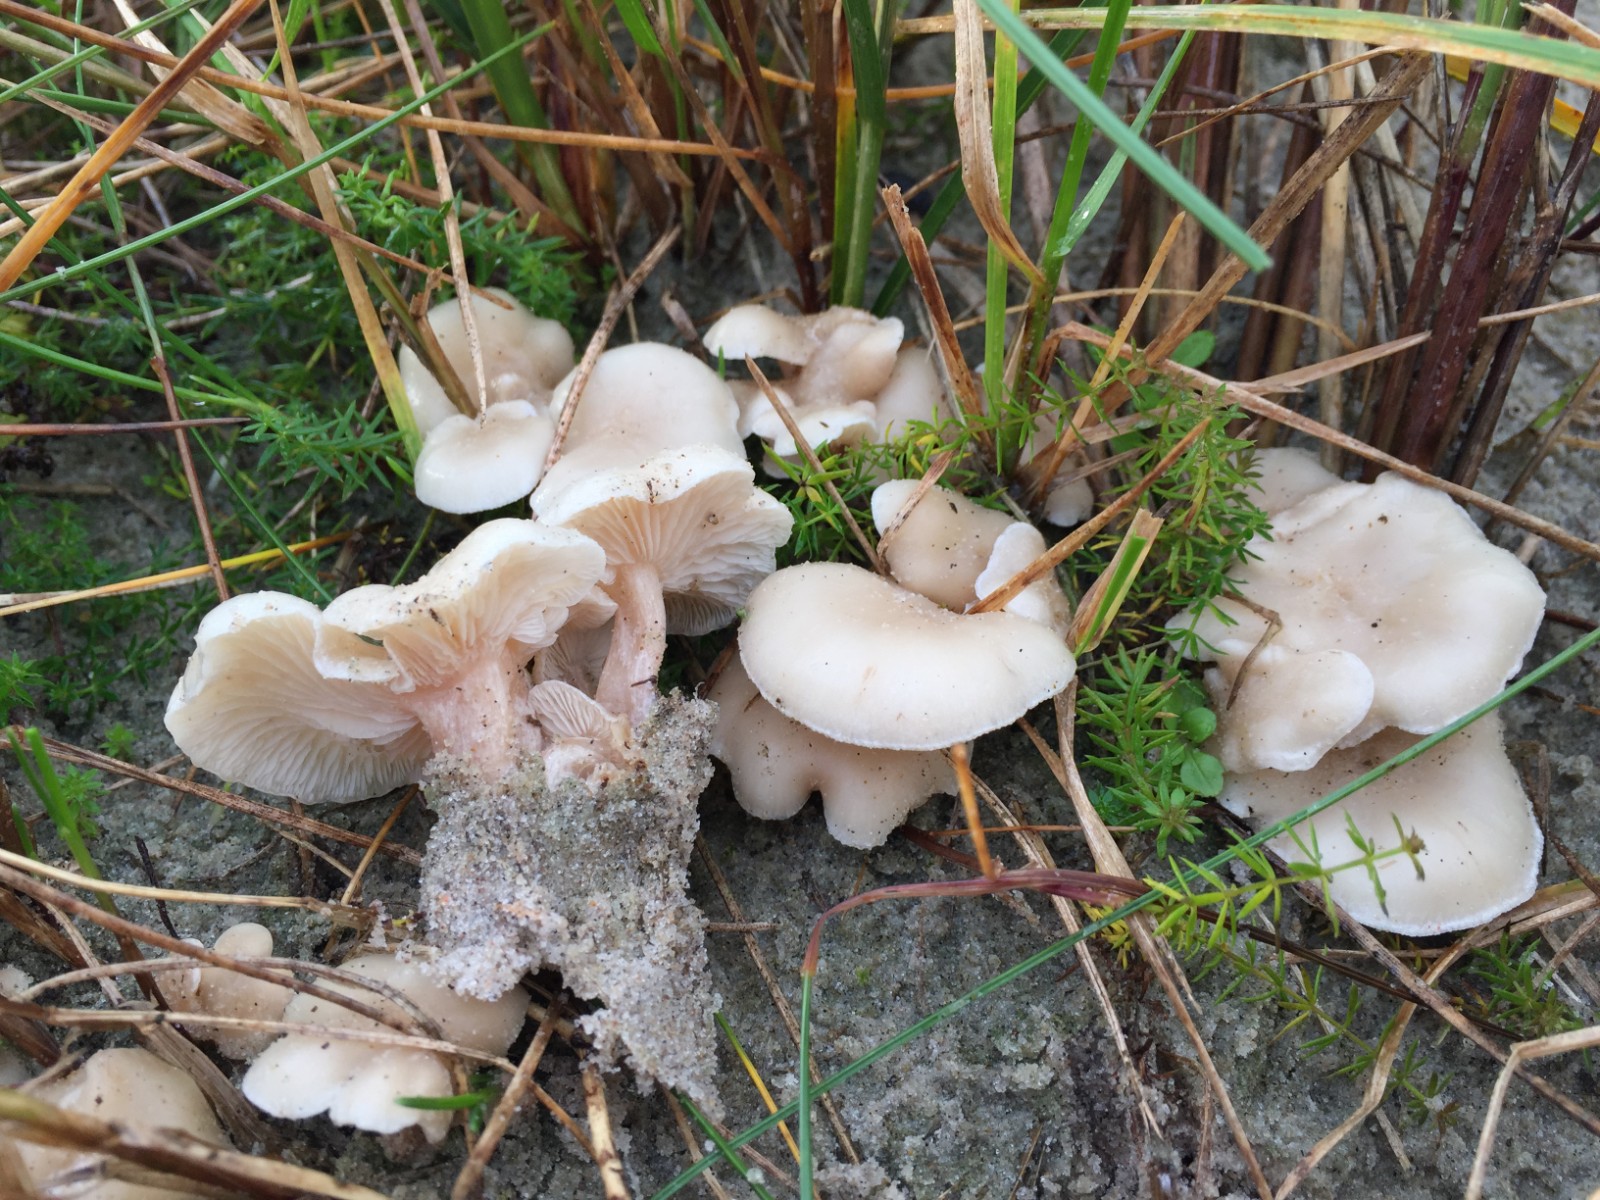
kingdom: Fungi
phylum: Basidiomycota
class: Agaricomycetes
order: Agaricales
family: Tricholomataceae
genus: Clitocybe
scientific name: Clitocybe agrestis
